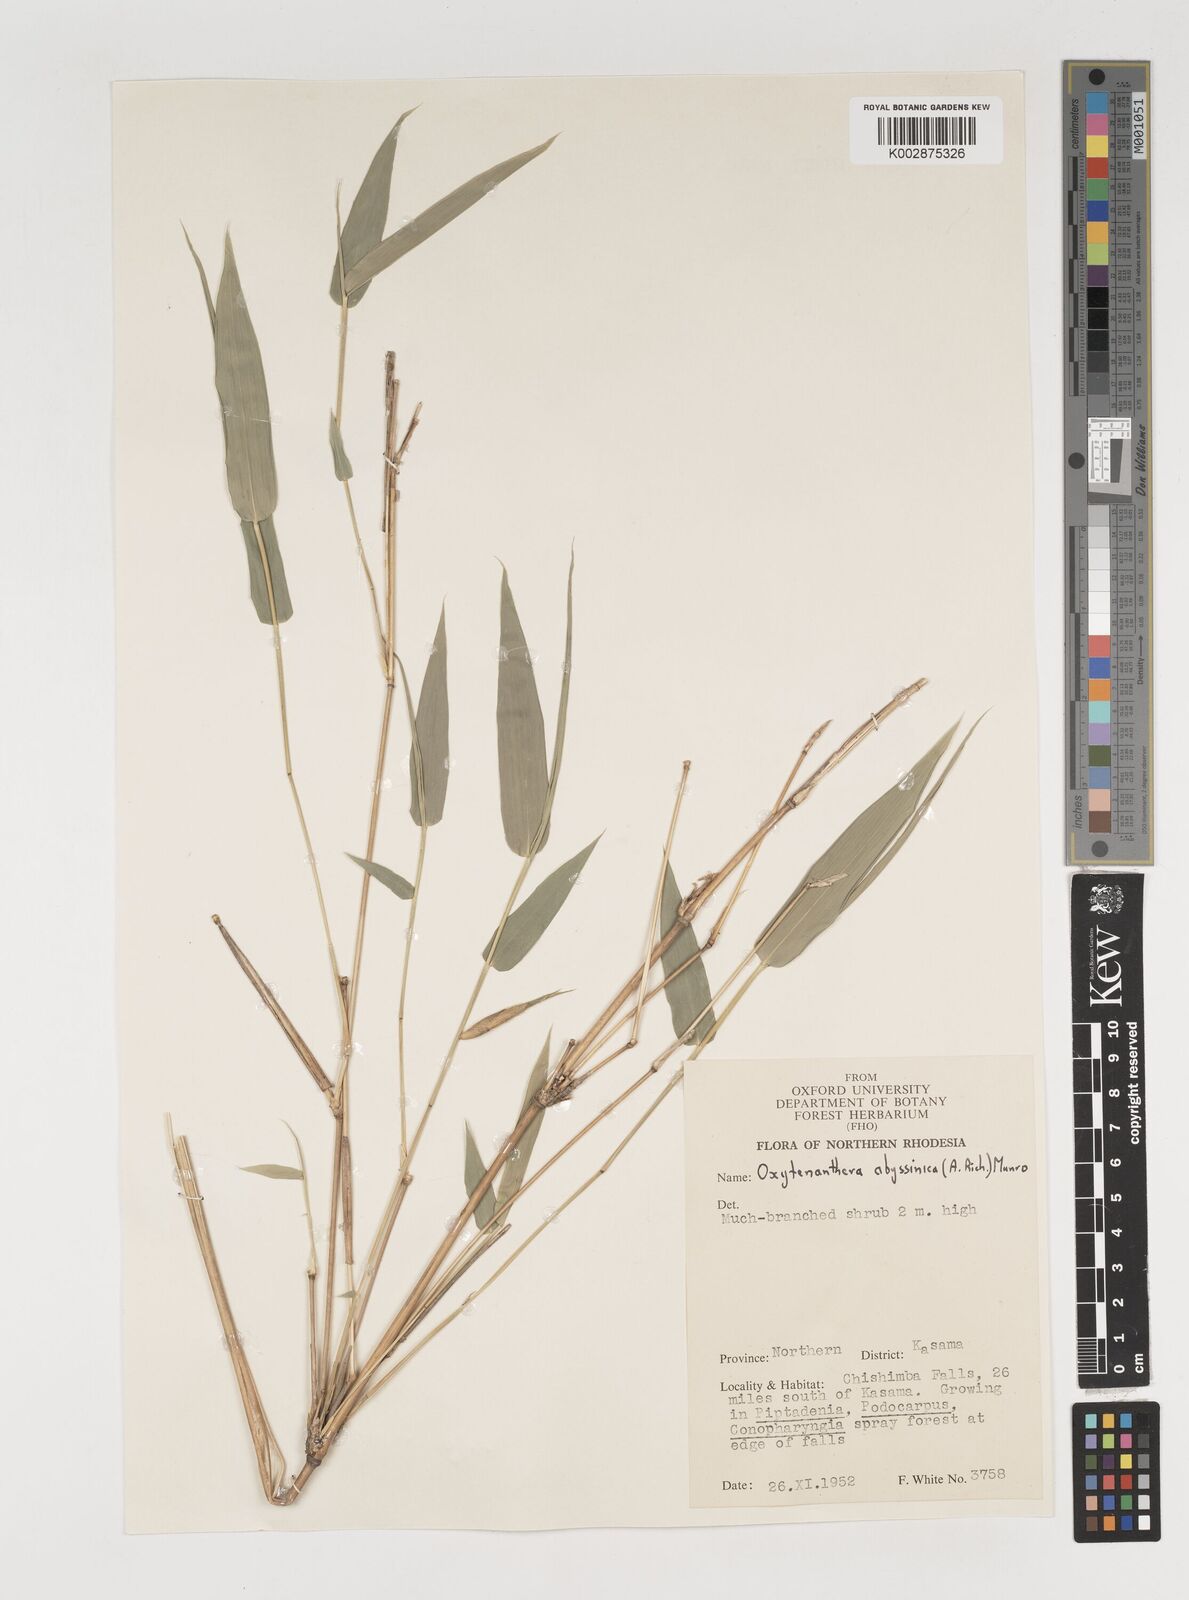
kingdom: Plantae
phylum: Tracheophyta
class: Liliopsida
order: Poales
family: Poaceae
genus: Oxytenanthera
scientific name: Oxytenanthera abyssinica
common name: Wine bamboo
